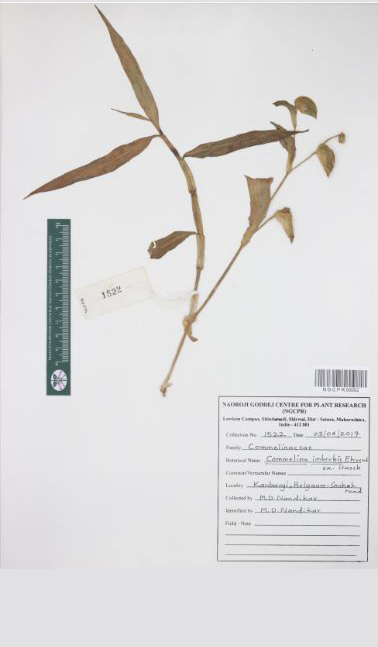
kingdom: Plantae
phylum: Tracheophyta
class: Liliopsida
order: Commelinales
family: Commelinaceae
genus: Commelina
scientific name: Commelina imberbis
